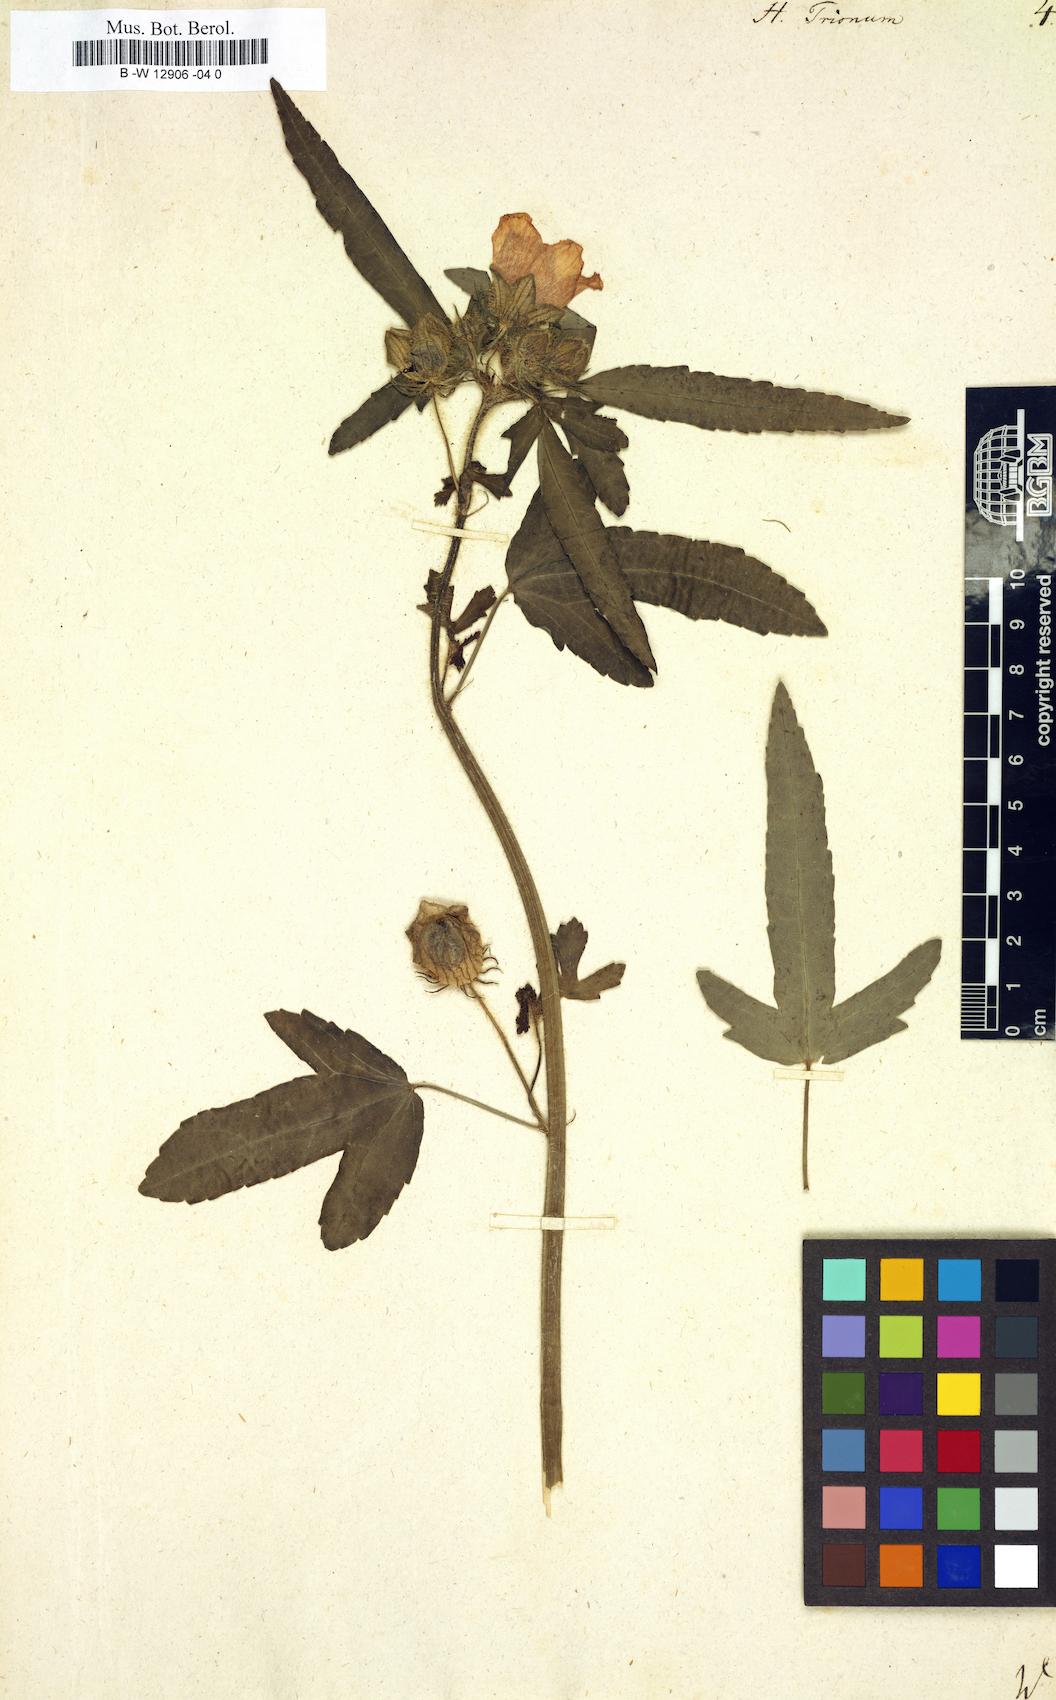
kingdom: Plantae
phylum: Tracheophyta
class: Magnoliopsida
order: Malvales
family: Malvaceae
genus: Hibiscus
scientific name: Hibiscus trionum
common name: Bladder ketmia
